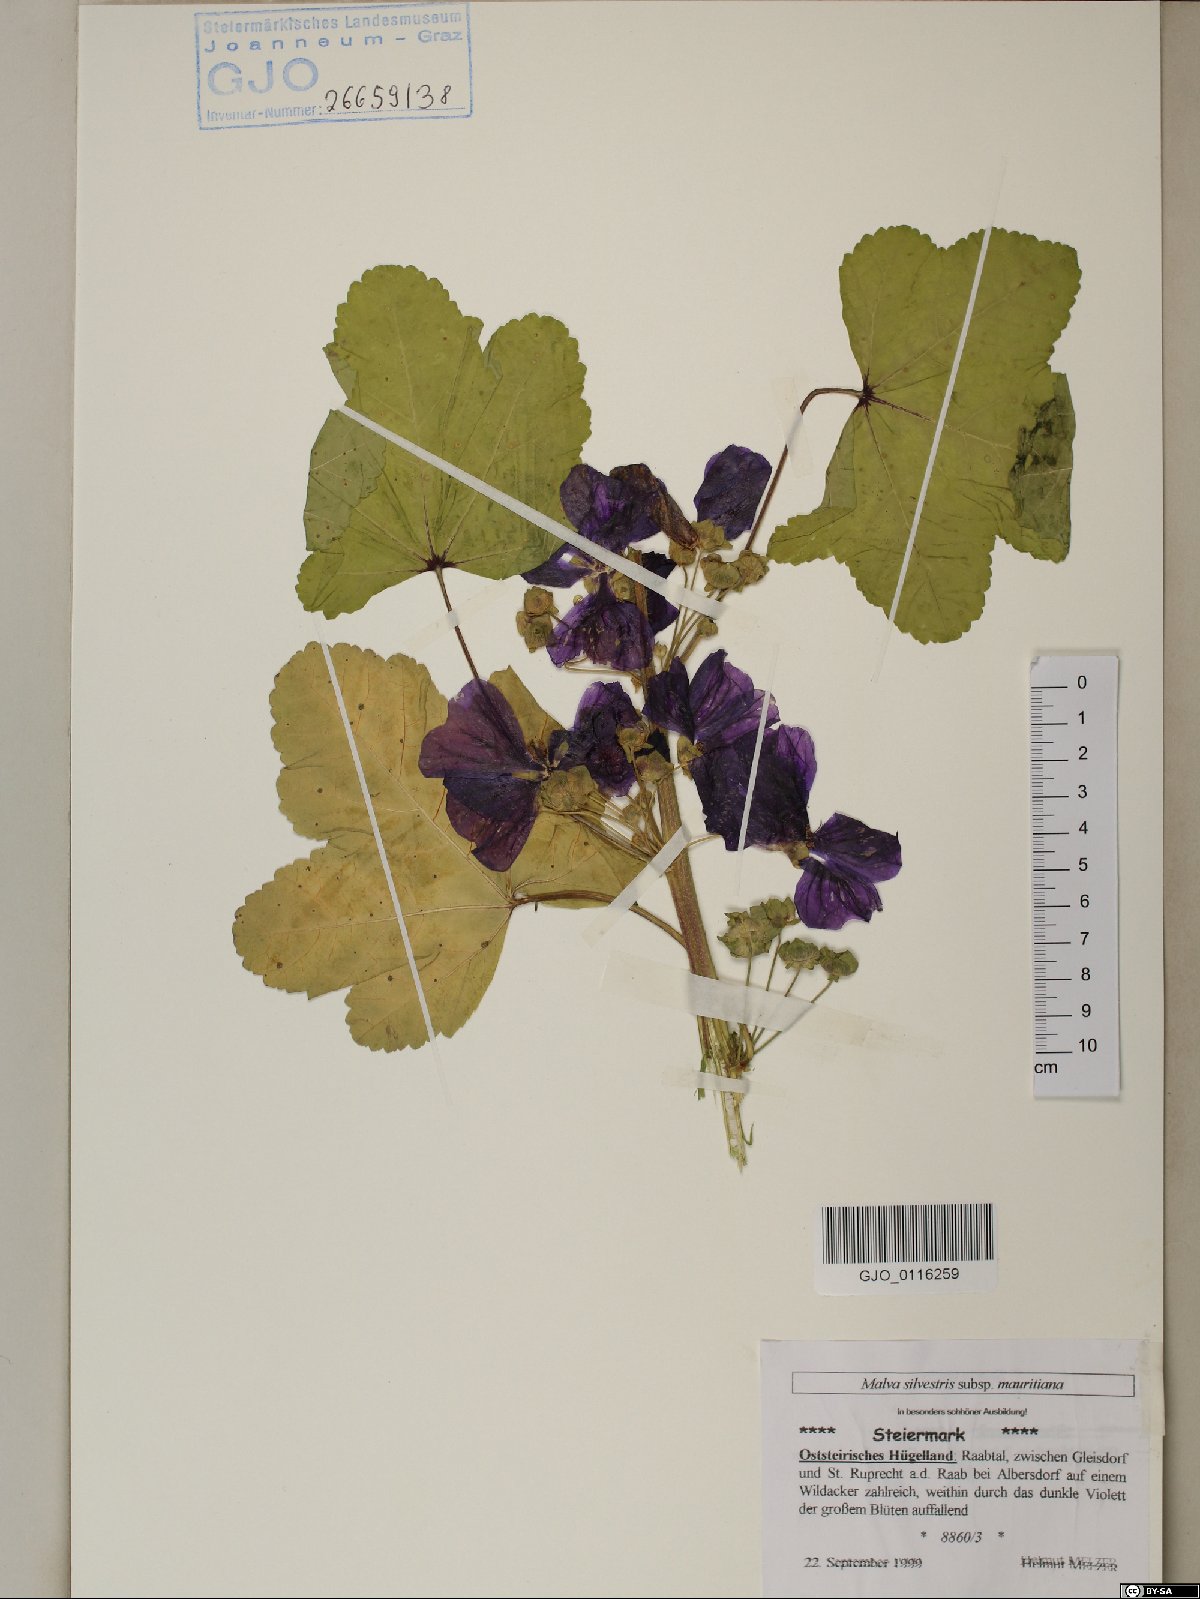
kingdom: Plantae
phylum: Tracheophyta
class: Magnoliopsida
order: Malvales
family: Malvaceae
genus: Malva
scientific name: Malva sylvestris
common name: Common mallow
